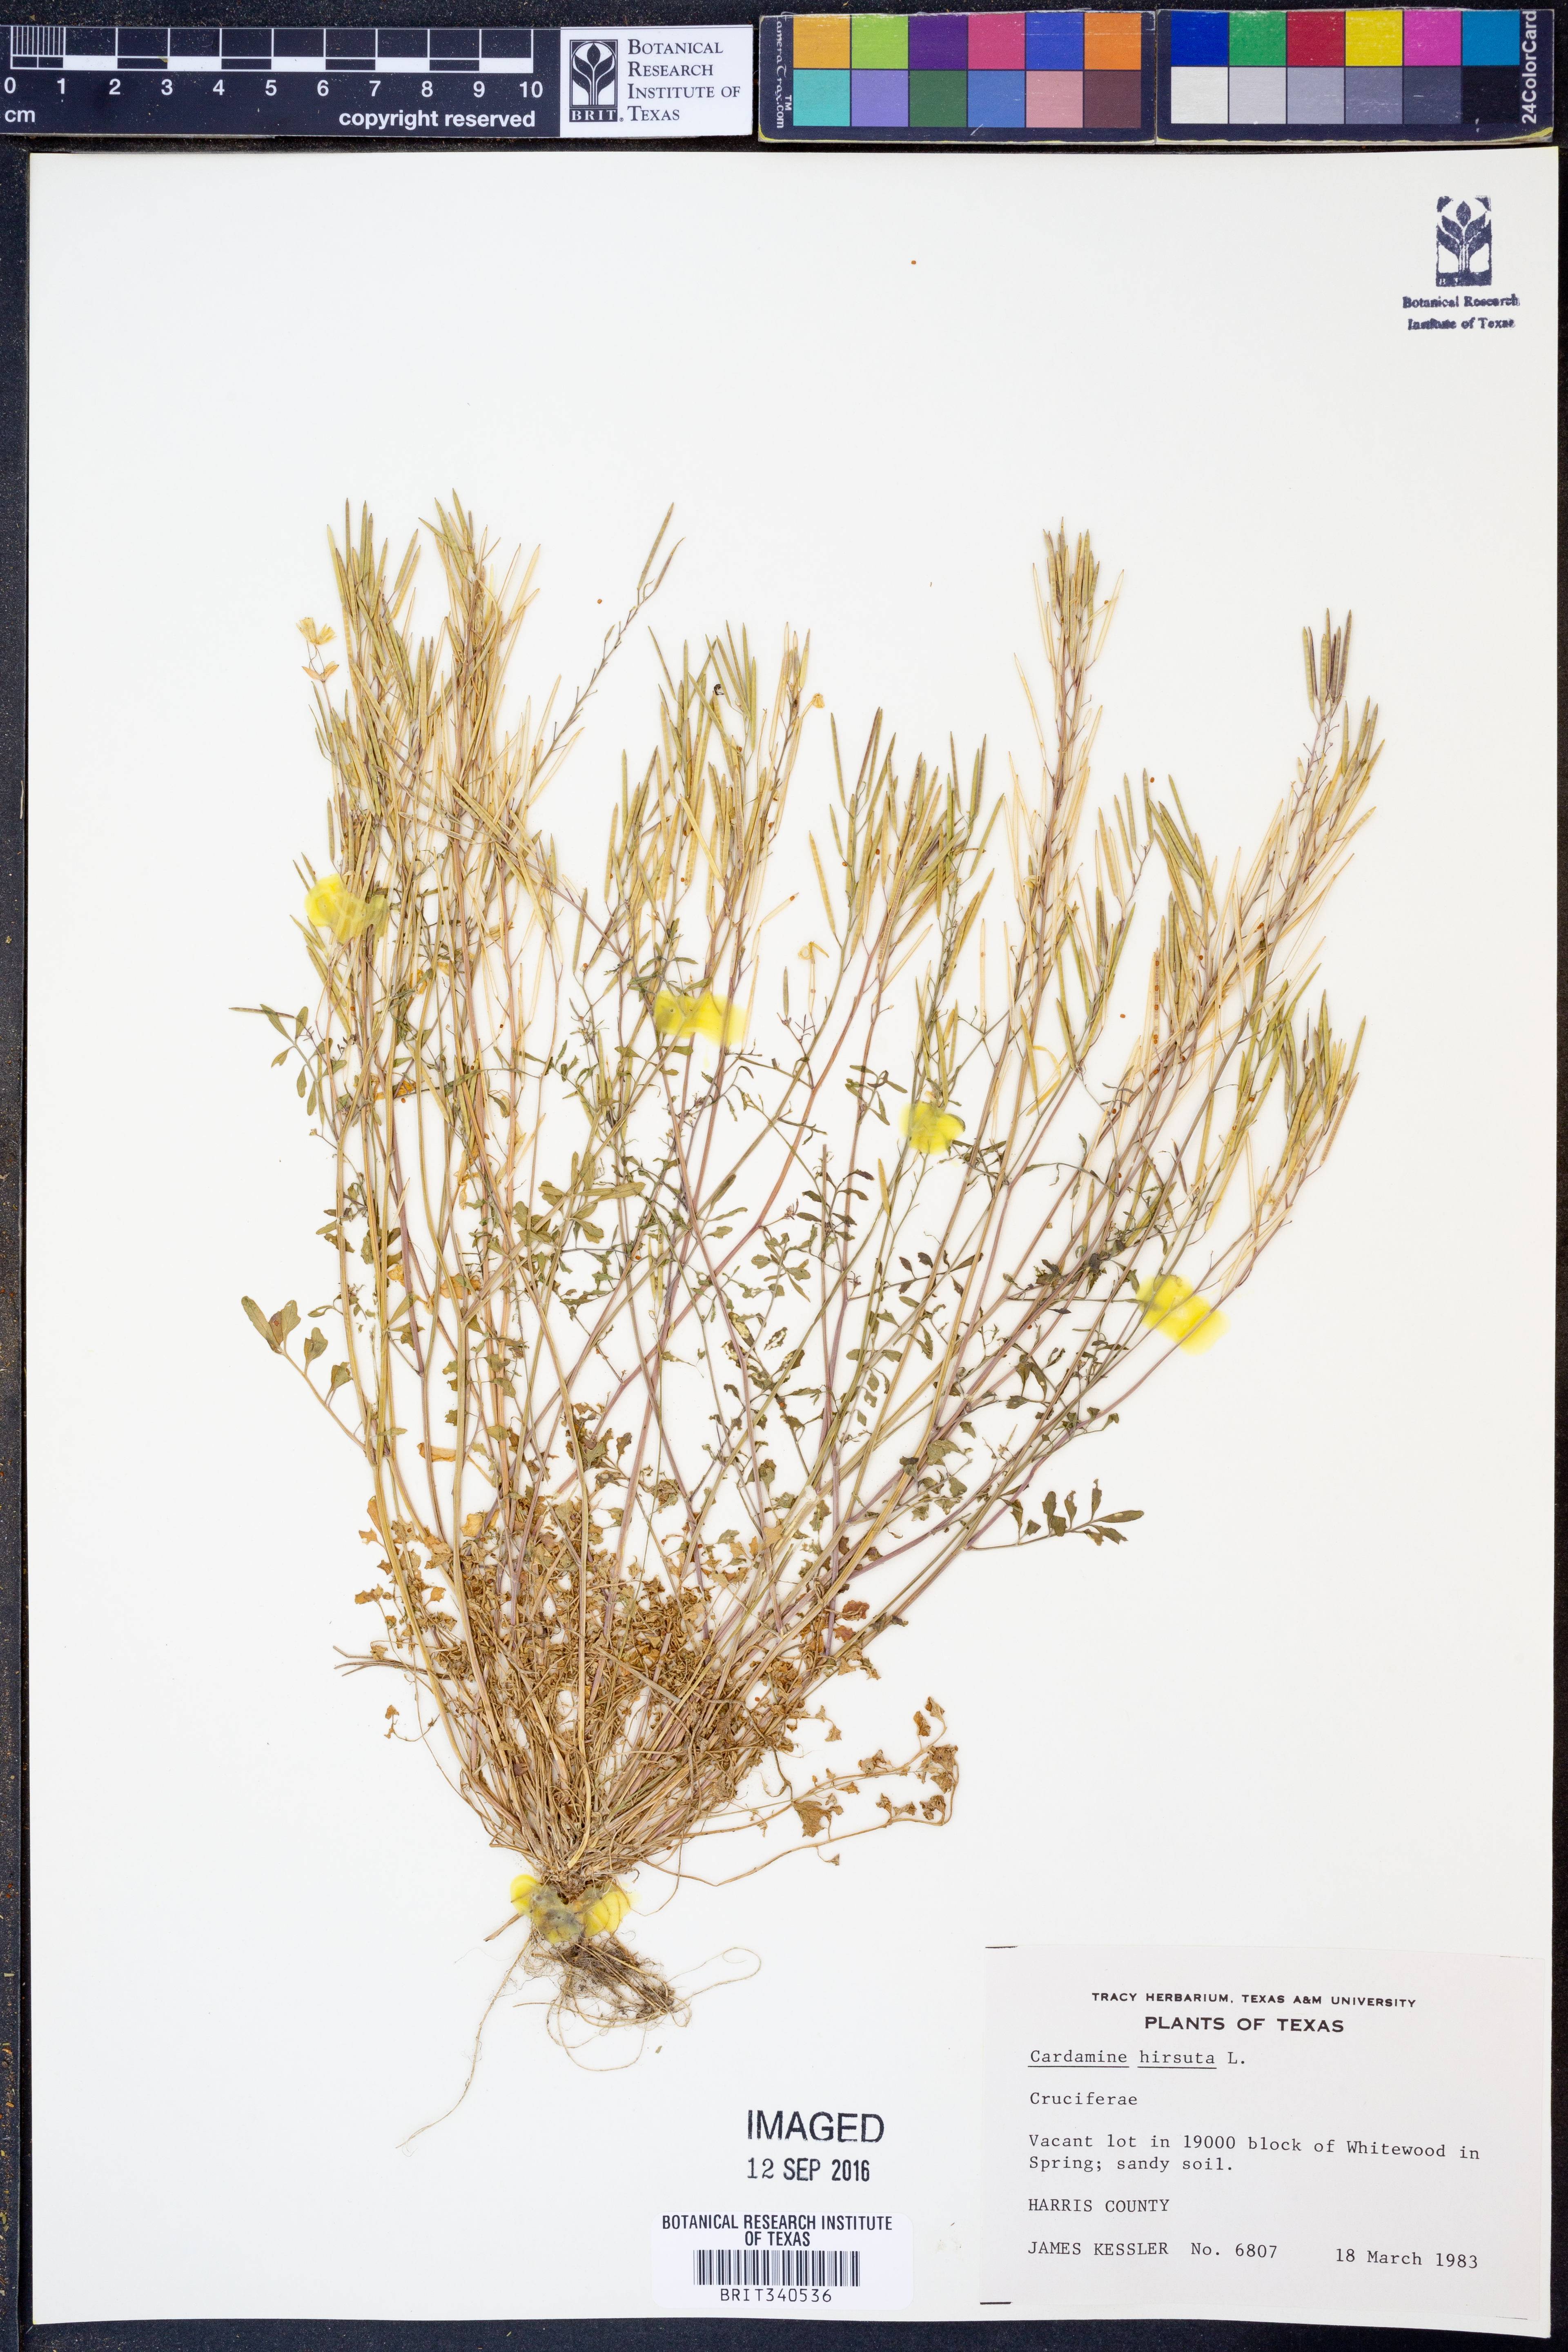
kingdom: Plantae
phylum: Tracheophyta
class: Magnoliopsida
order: Brassicales
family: Brassicaceae
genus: Cardamine
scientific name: Cardamine hirsuta
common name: Hairy bittercress
